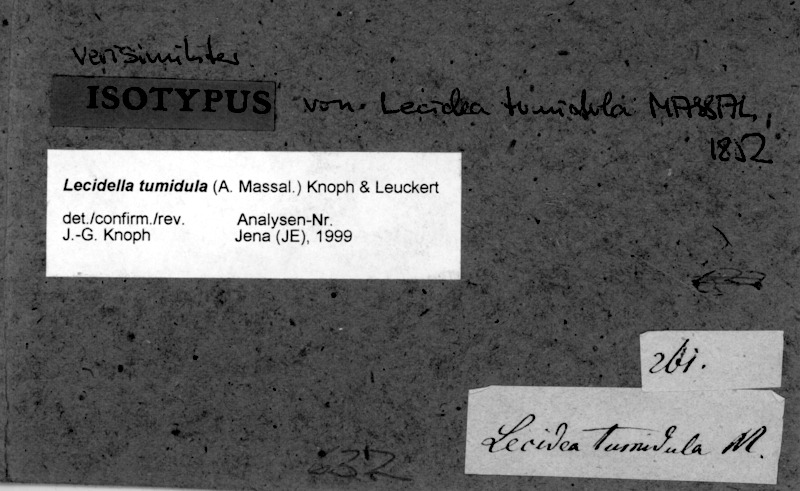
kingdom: Fungi
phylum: Ascomycota
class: Lecanoromycetes
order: Lecanorales
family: Lecanoraceae
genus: Lecidella
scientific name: Lecidella tumidula
